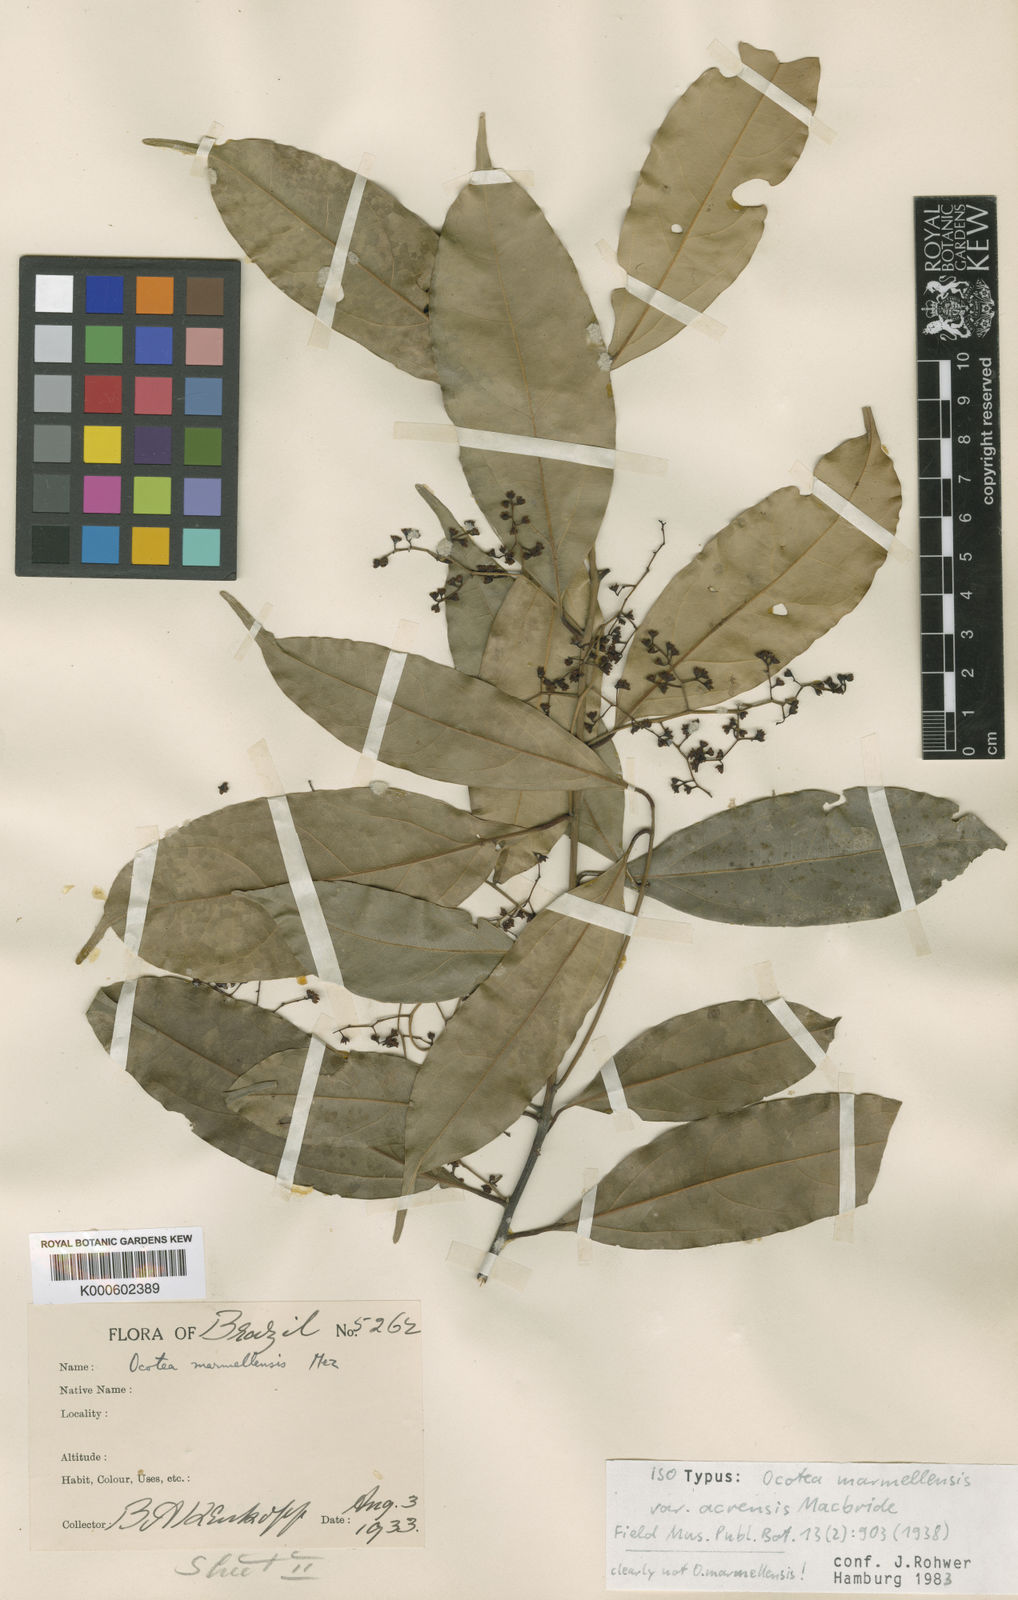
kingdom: Plantae
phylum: Tracheophyta
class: Magnoliopsida
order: Laurales
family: Lauraceae
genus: Ocotea
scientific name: Ocotea leptobotra
